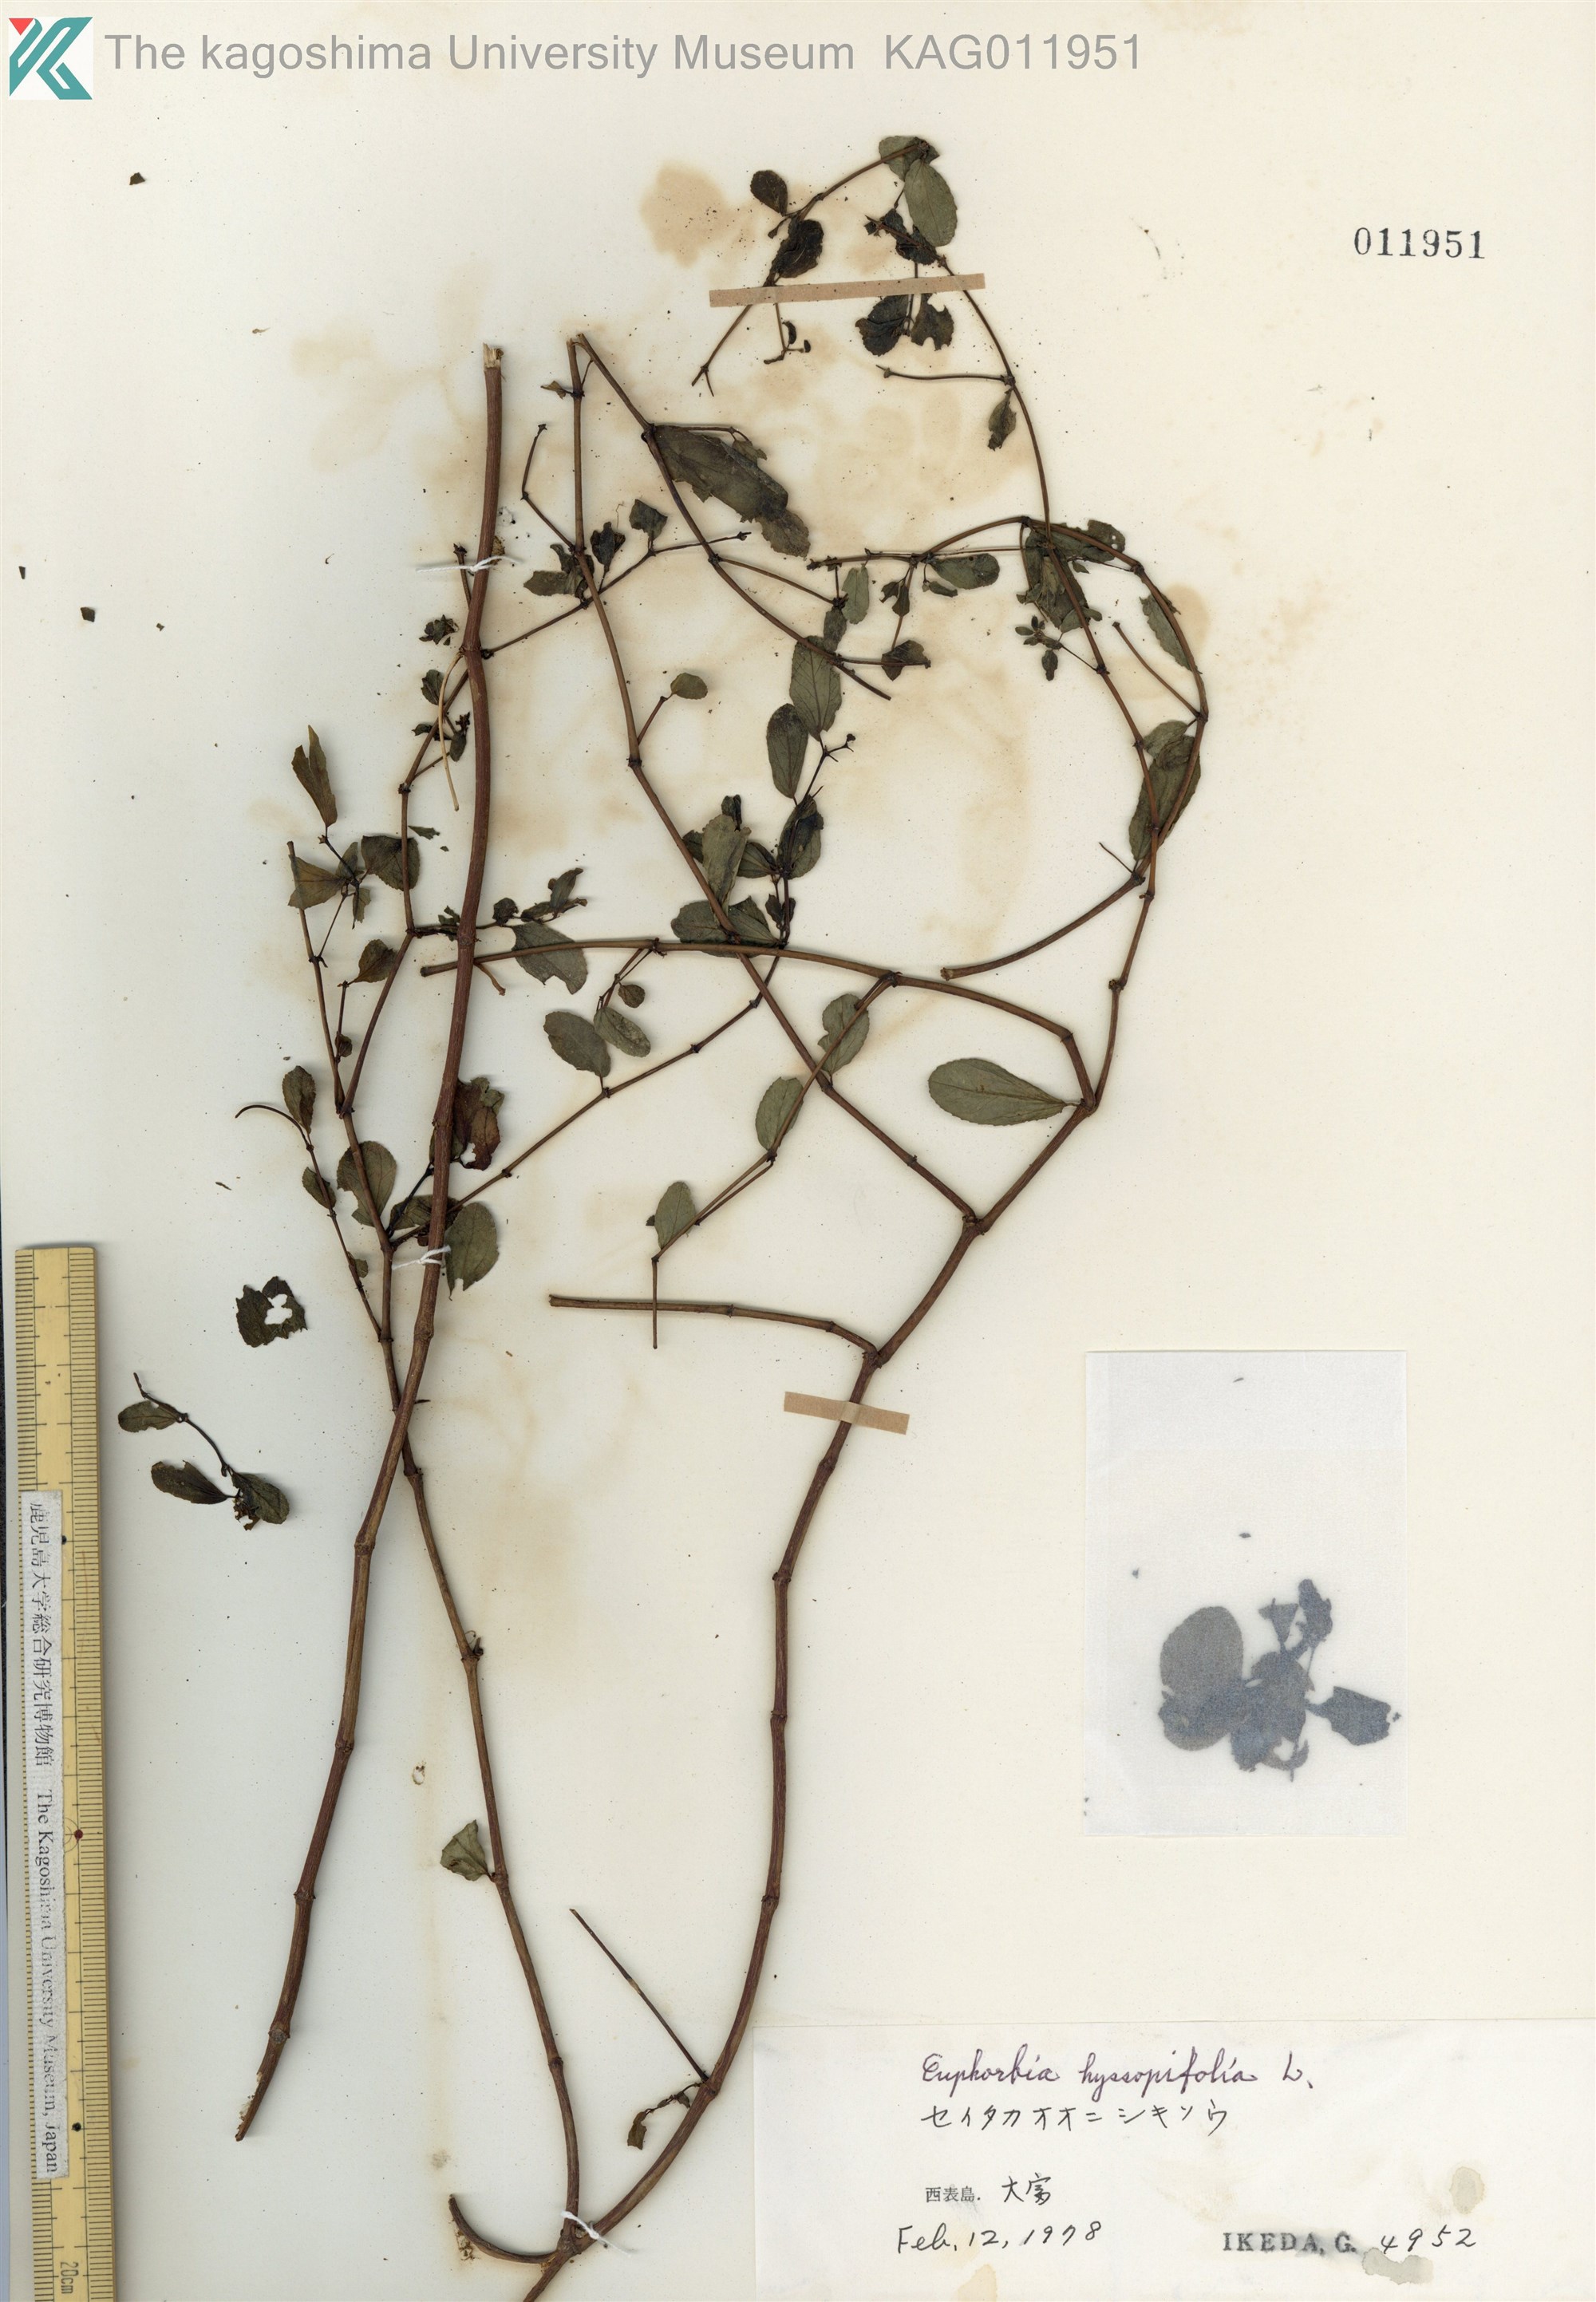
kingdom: Plantae
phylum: Tracheophyta
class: Magnoliopsida
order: Malpighiales
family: Euphorbiaceae
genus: Euphorbia
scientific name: Euphorbia hyssopifolia
